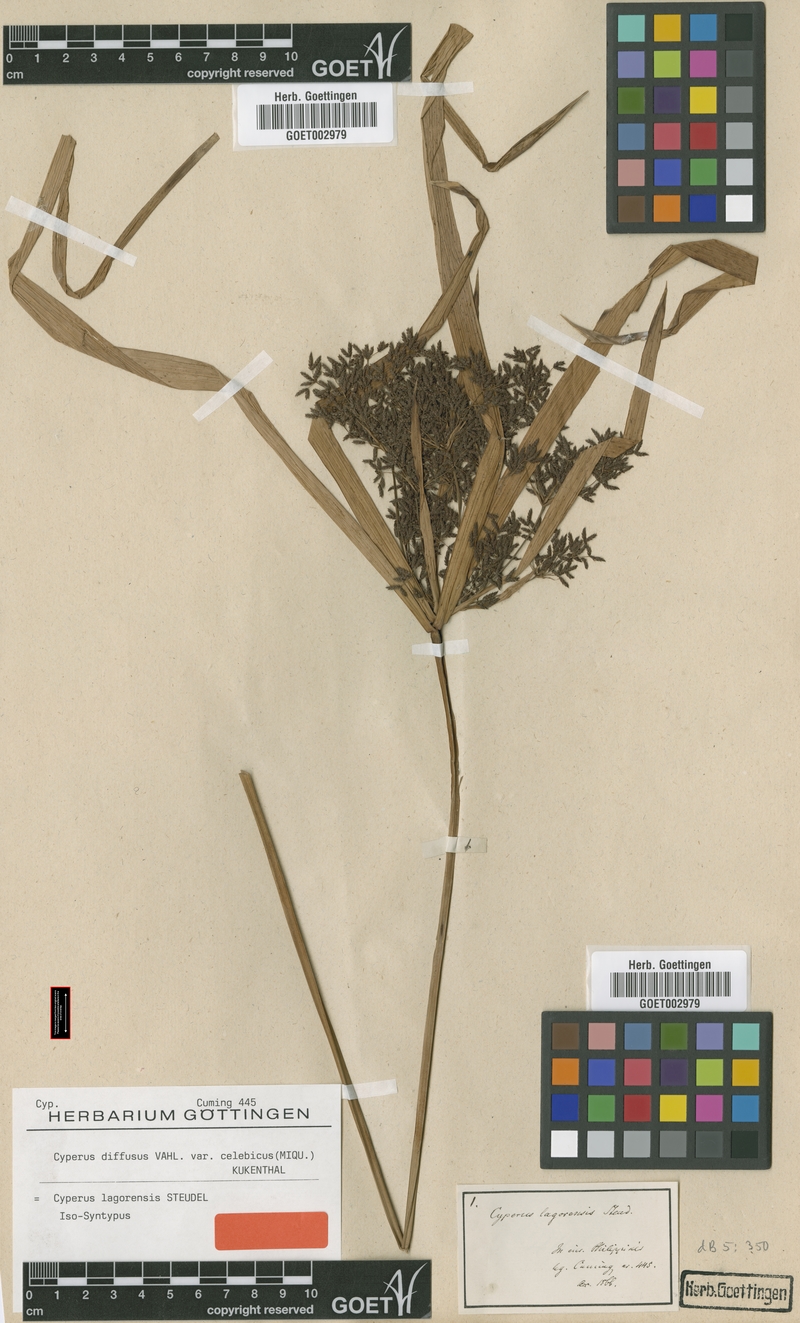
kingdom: Plantae
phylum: Tracheophyta
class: Liliopsida
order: Poales
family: Cyperaceae
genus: Cyperus
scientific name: Cyperus diffusus
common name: Dwarf umbrella grass
